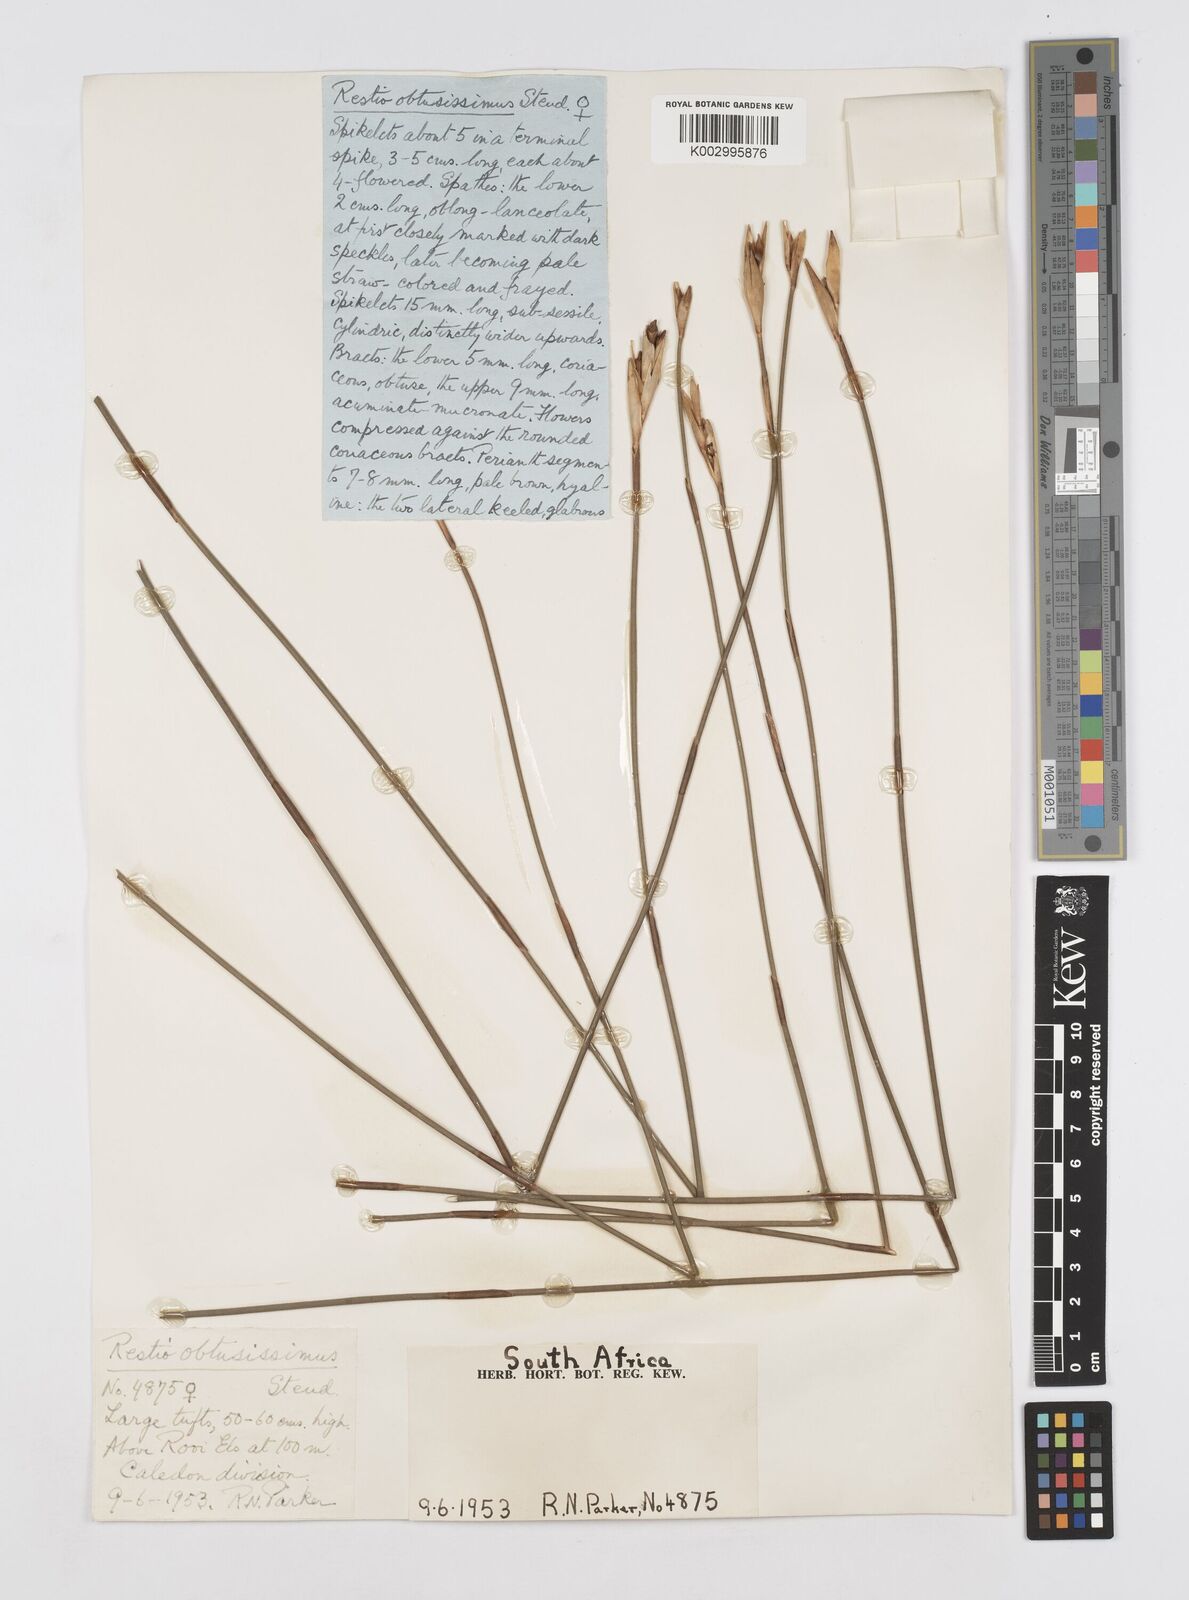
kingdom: Plantae
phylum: Tracheophyta
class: Liliopsida
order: Poales
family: Restionaceae
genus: Nevillea
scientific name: Nevillea obtusissimus
